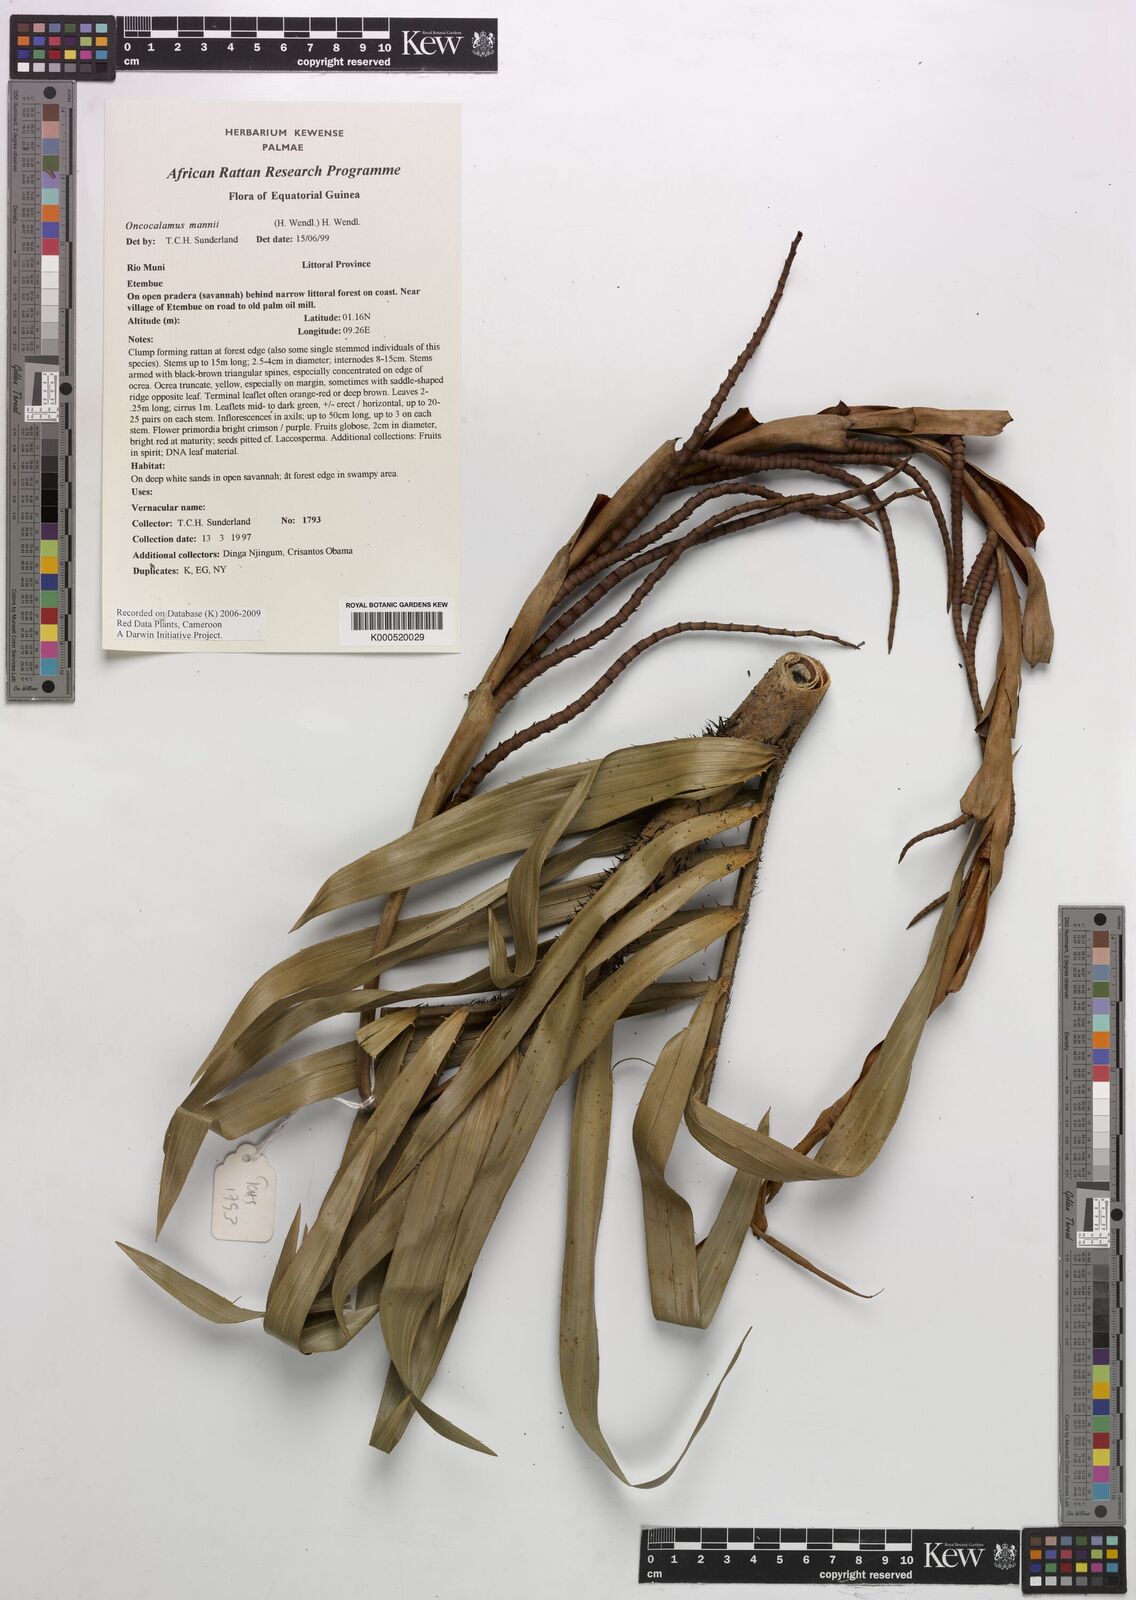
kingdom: Plantae
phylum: Tracheophyta
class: Liliopsida
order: Arecales
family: Arecaceae
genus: Oncocalamus
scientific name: Oncocalamus mannii
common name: Rattan
